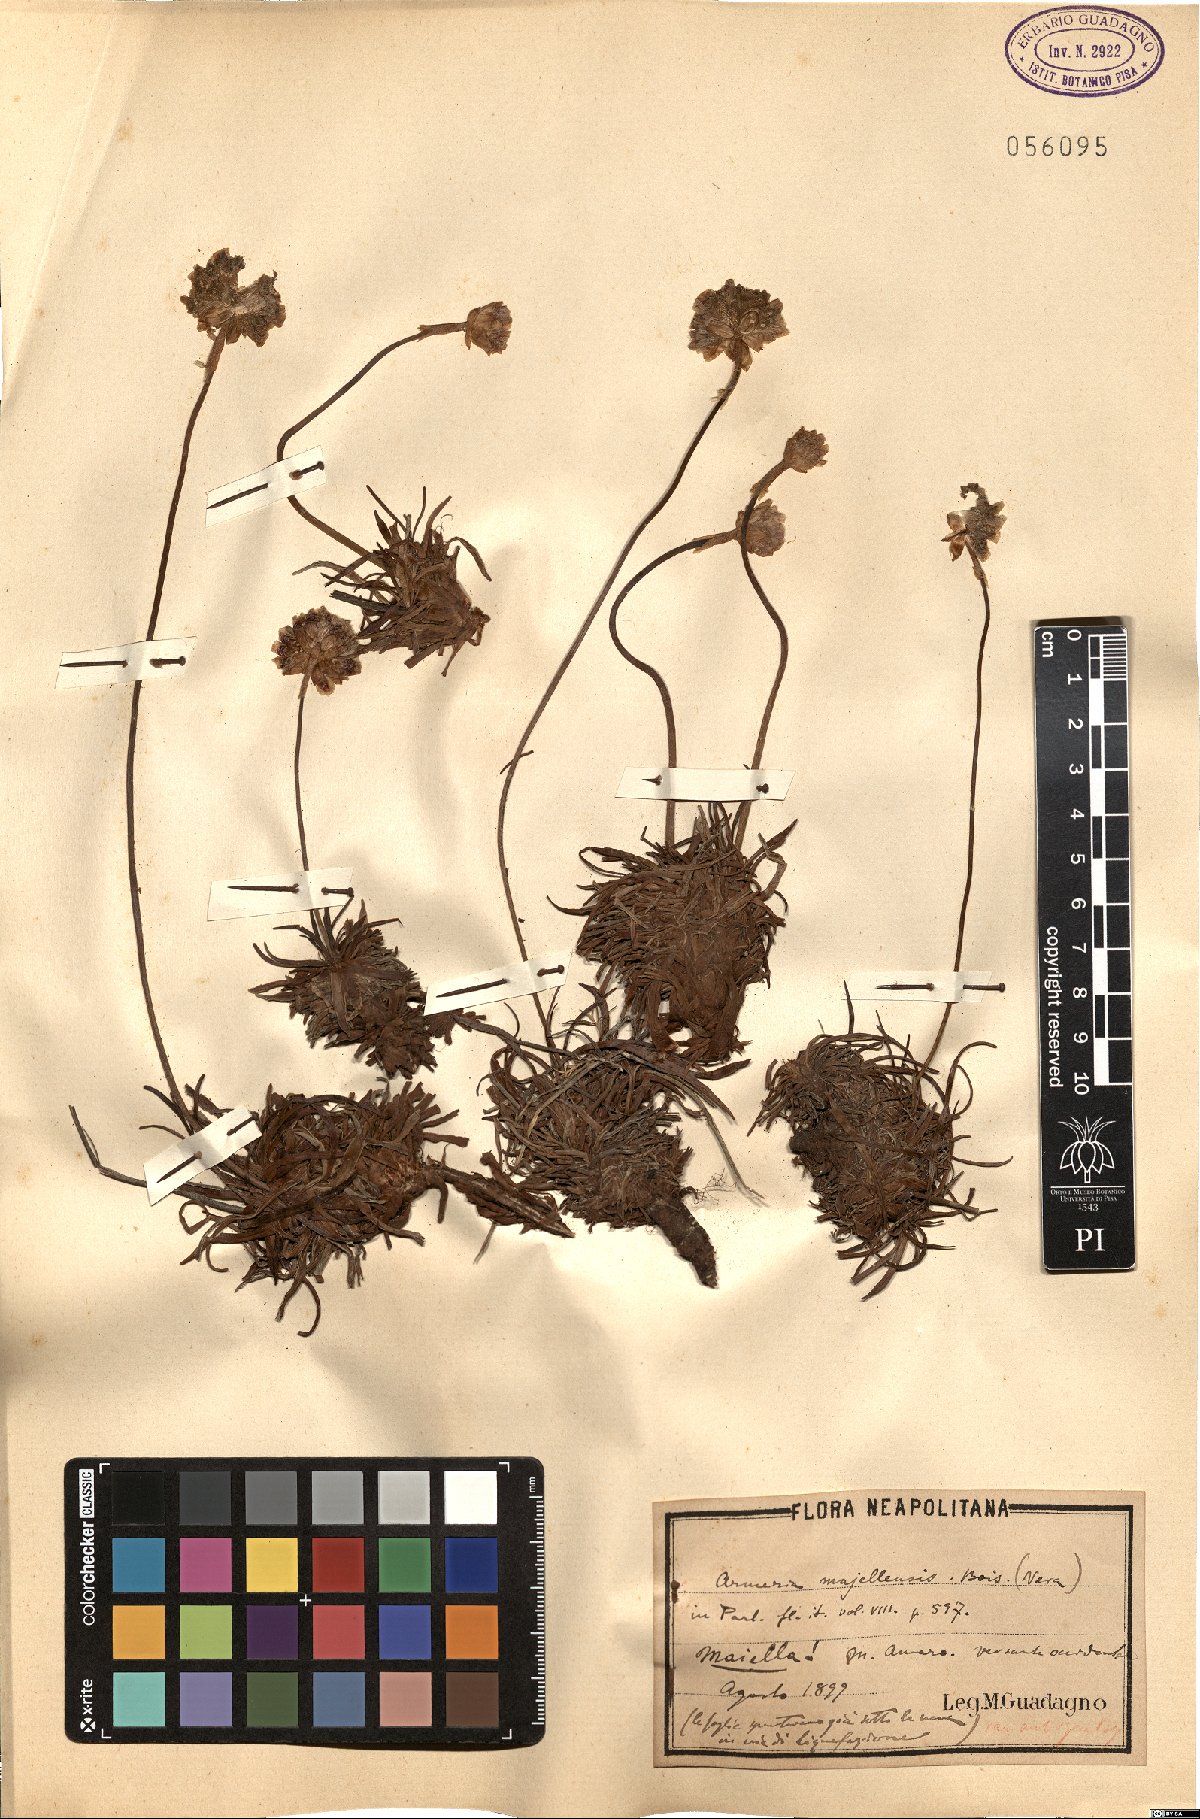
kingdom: Plantae
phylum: Tracheophyta
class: Magnoliopsida
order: Caryophyllales
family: Plumbaginaceae
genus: Armeria
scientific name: Armeria nebrodensis
